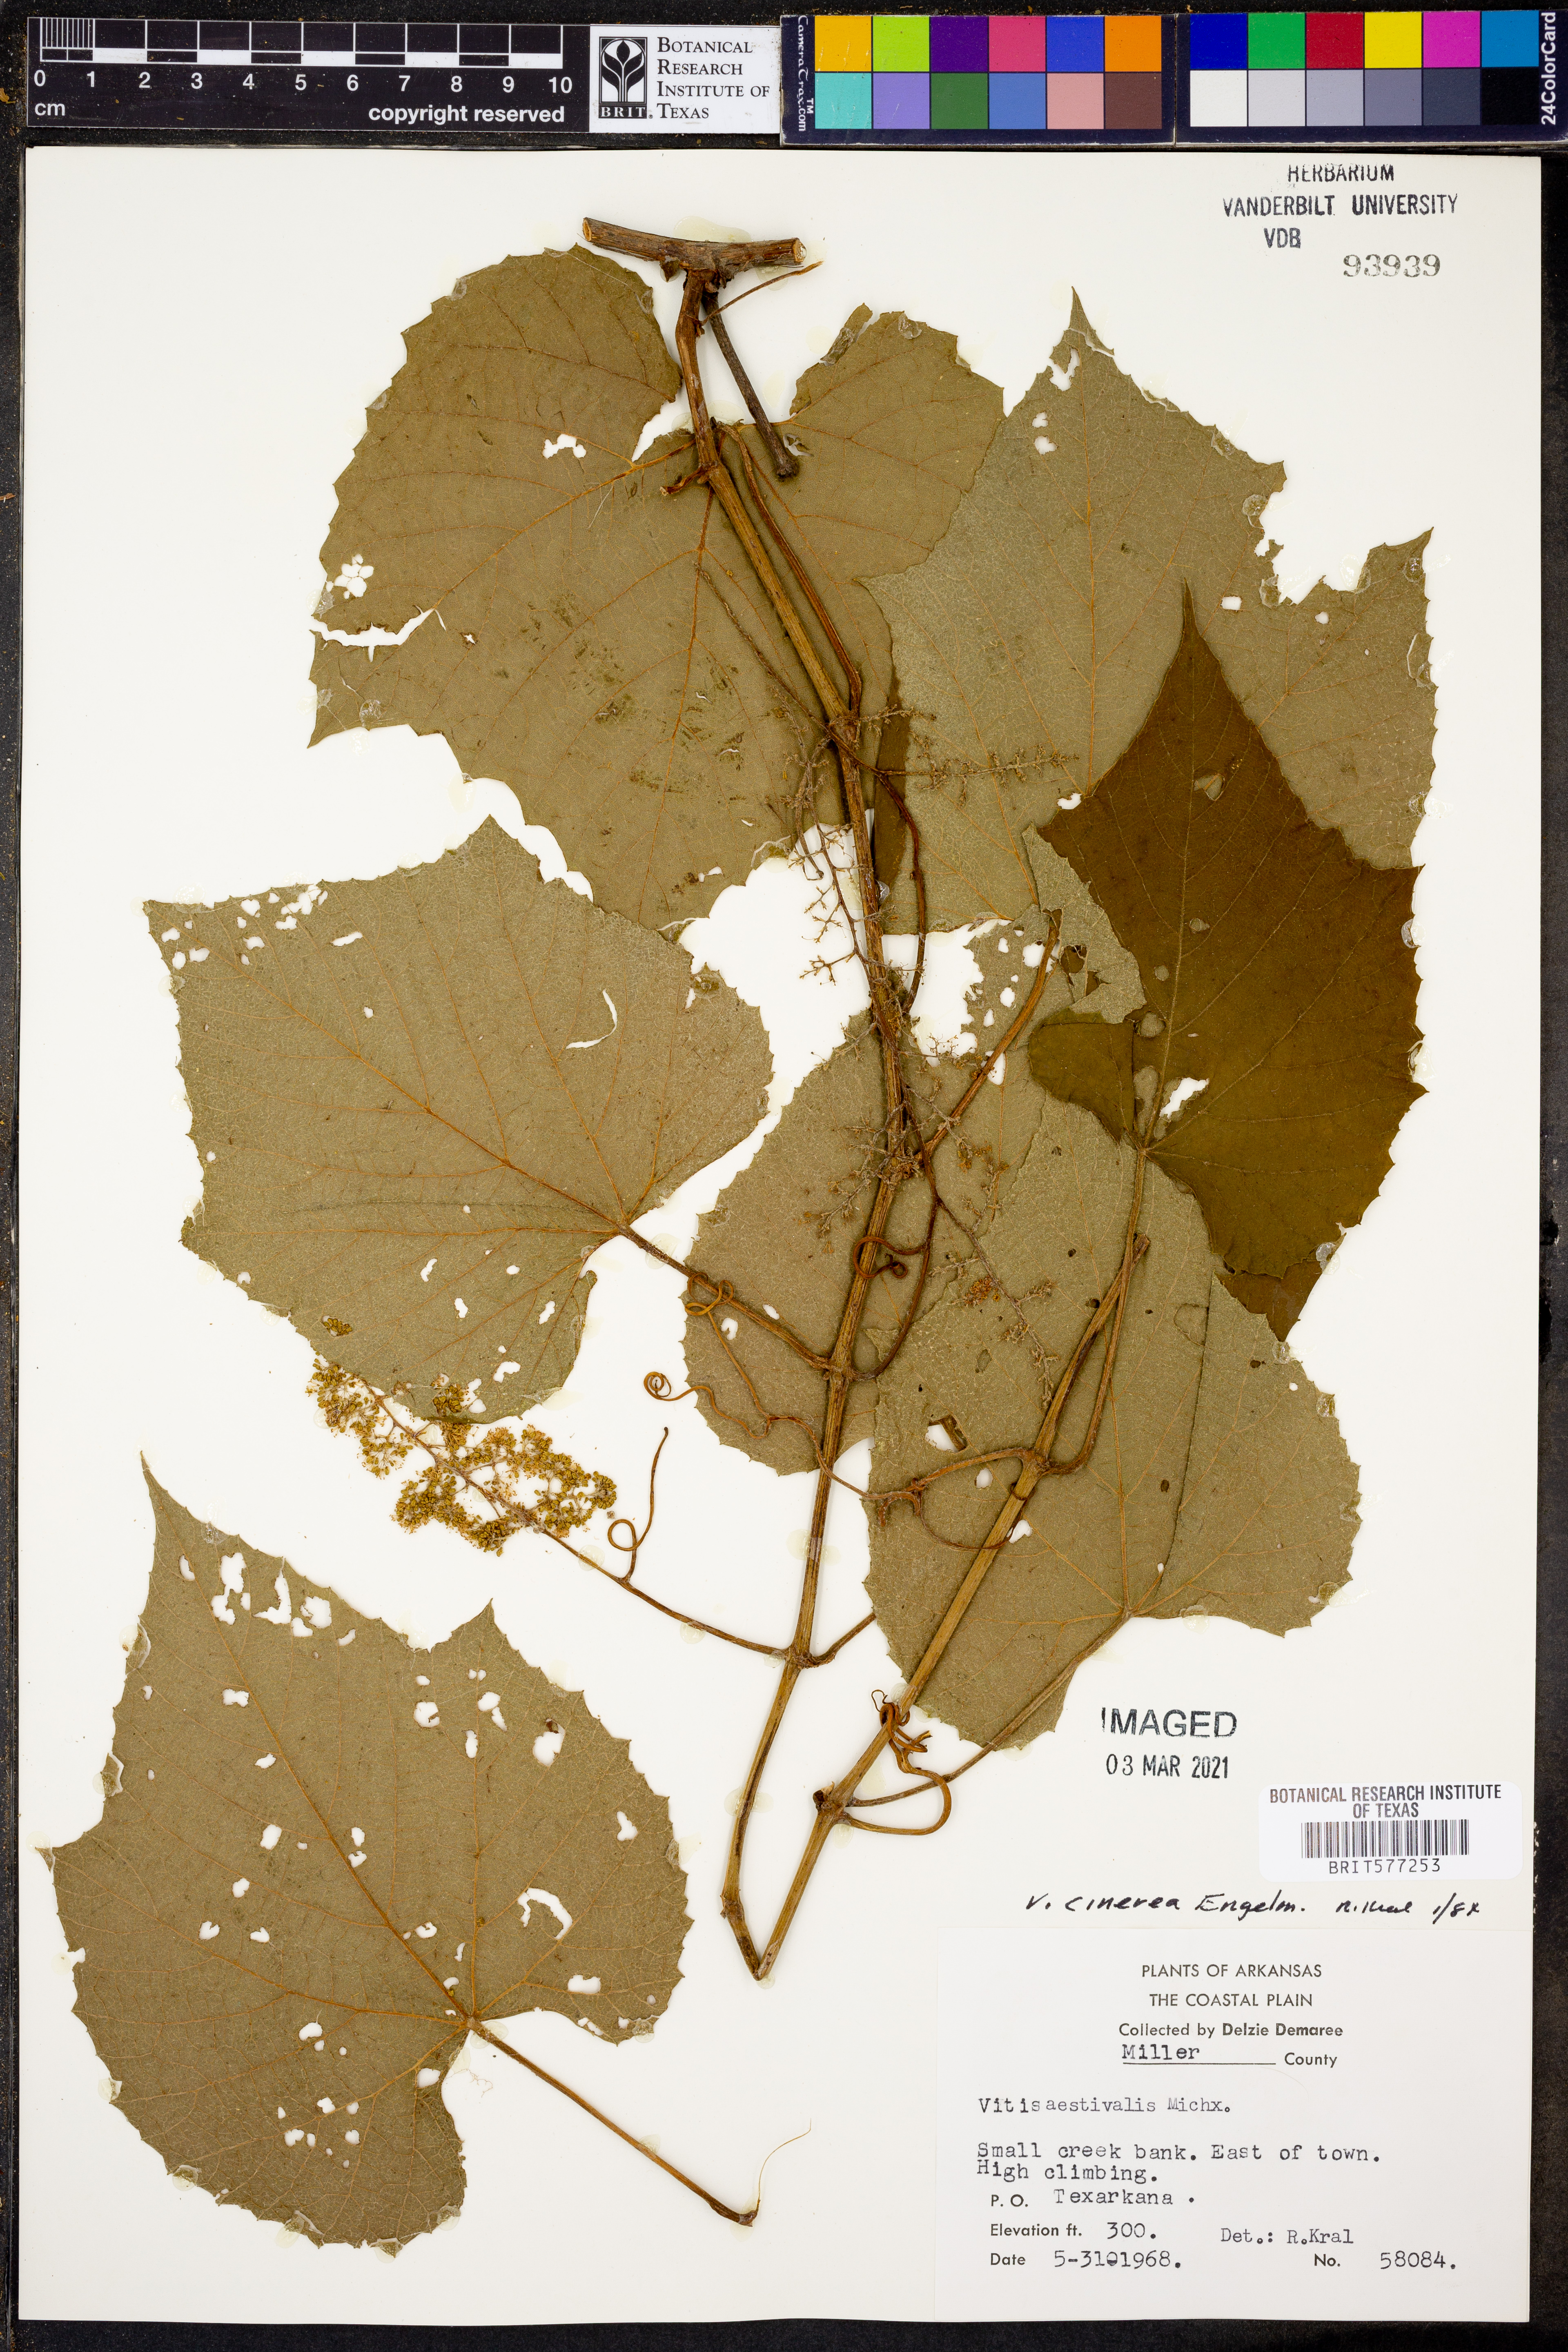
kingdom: Plantae
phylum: Tracheophyta
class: Magnoliopsida
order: Vitales
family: Vitaceae
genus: Vitis
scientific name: Vitis cinerea
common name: Ashy grape
